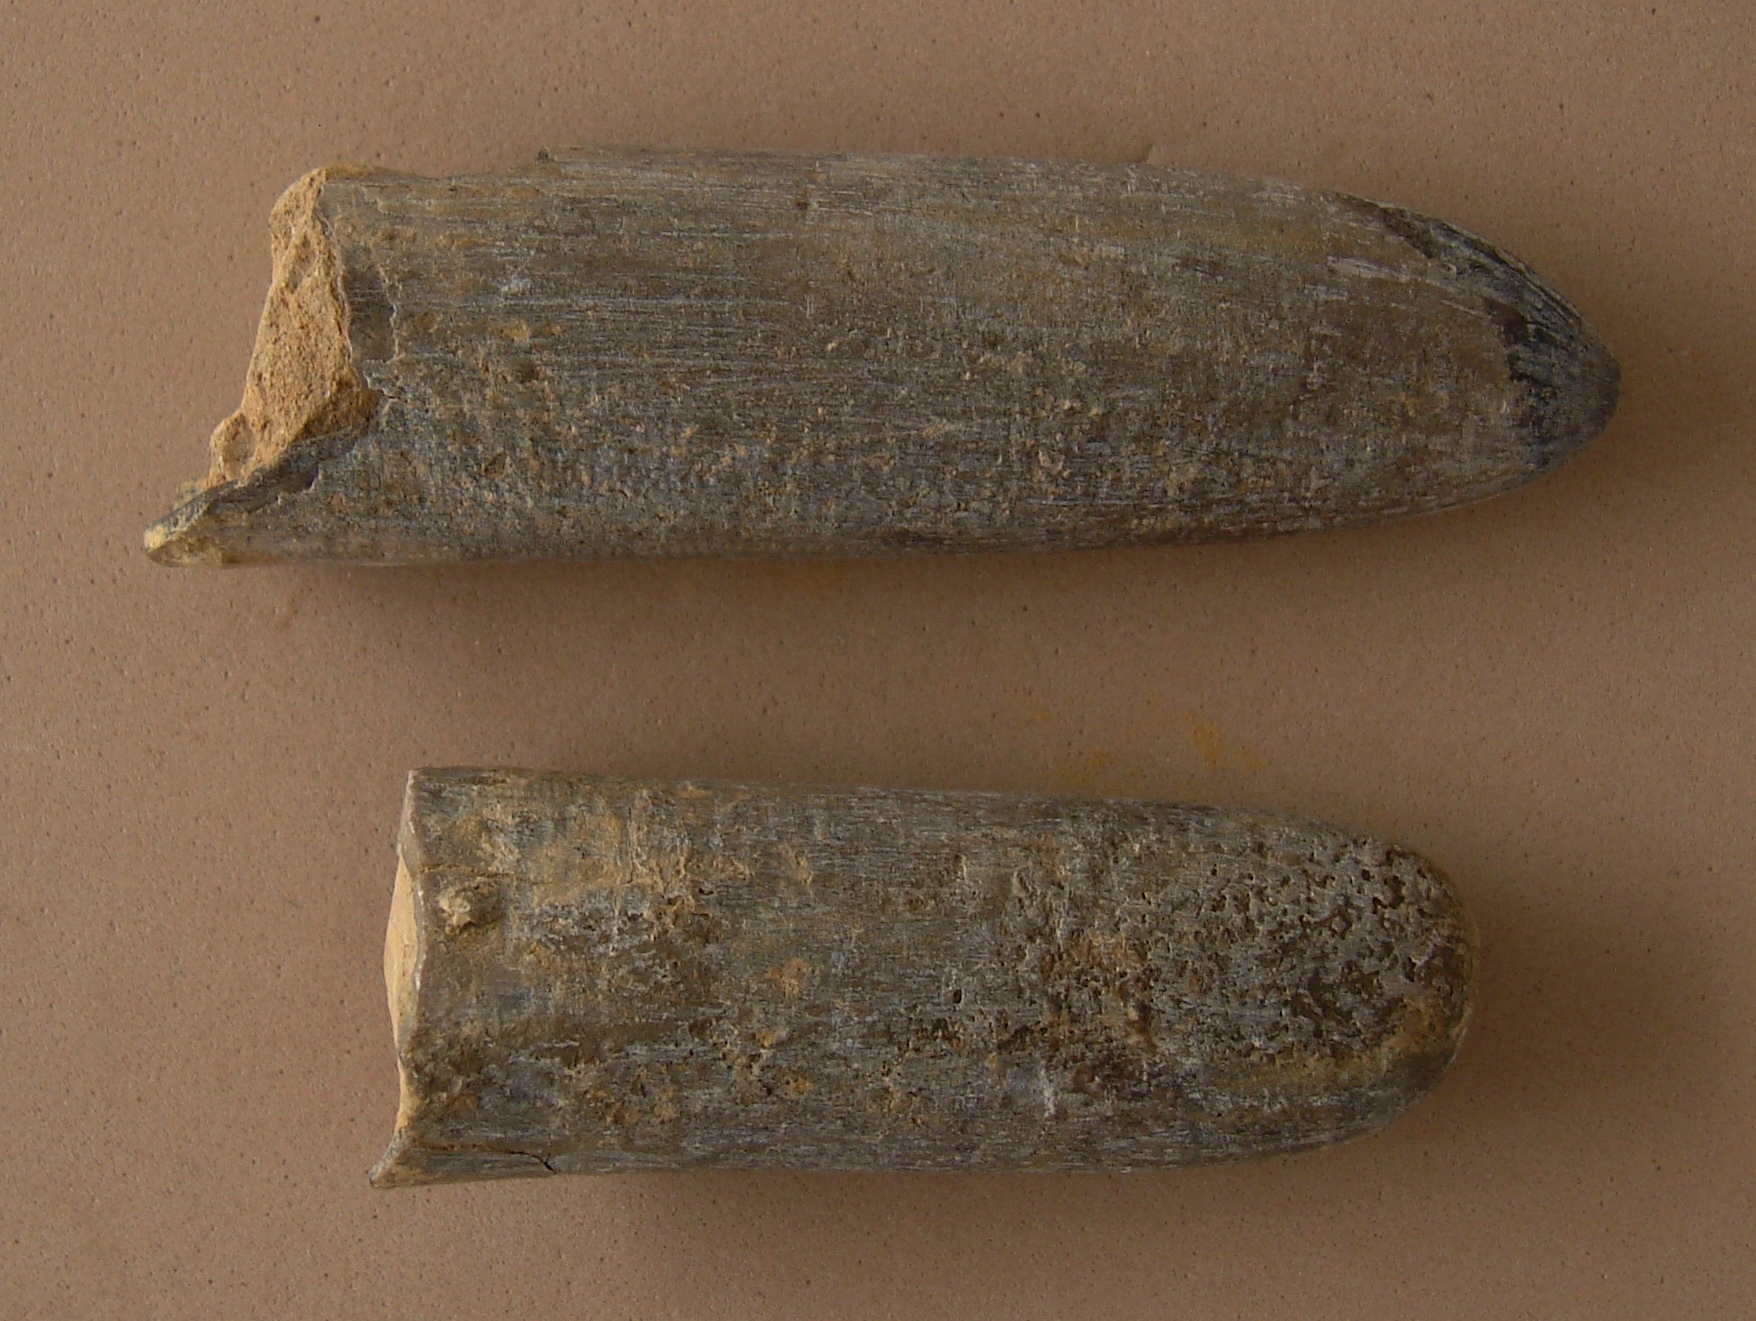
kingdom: Animalia
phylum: Mollusca
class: Cephalopoda
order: Belemnitida
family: Megateuthididae
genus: Dactyloteuthis
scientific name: Dactyloteuthis irregularis
